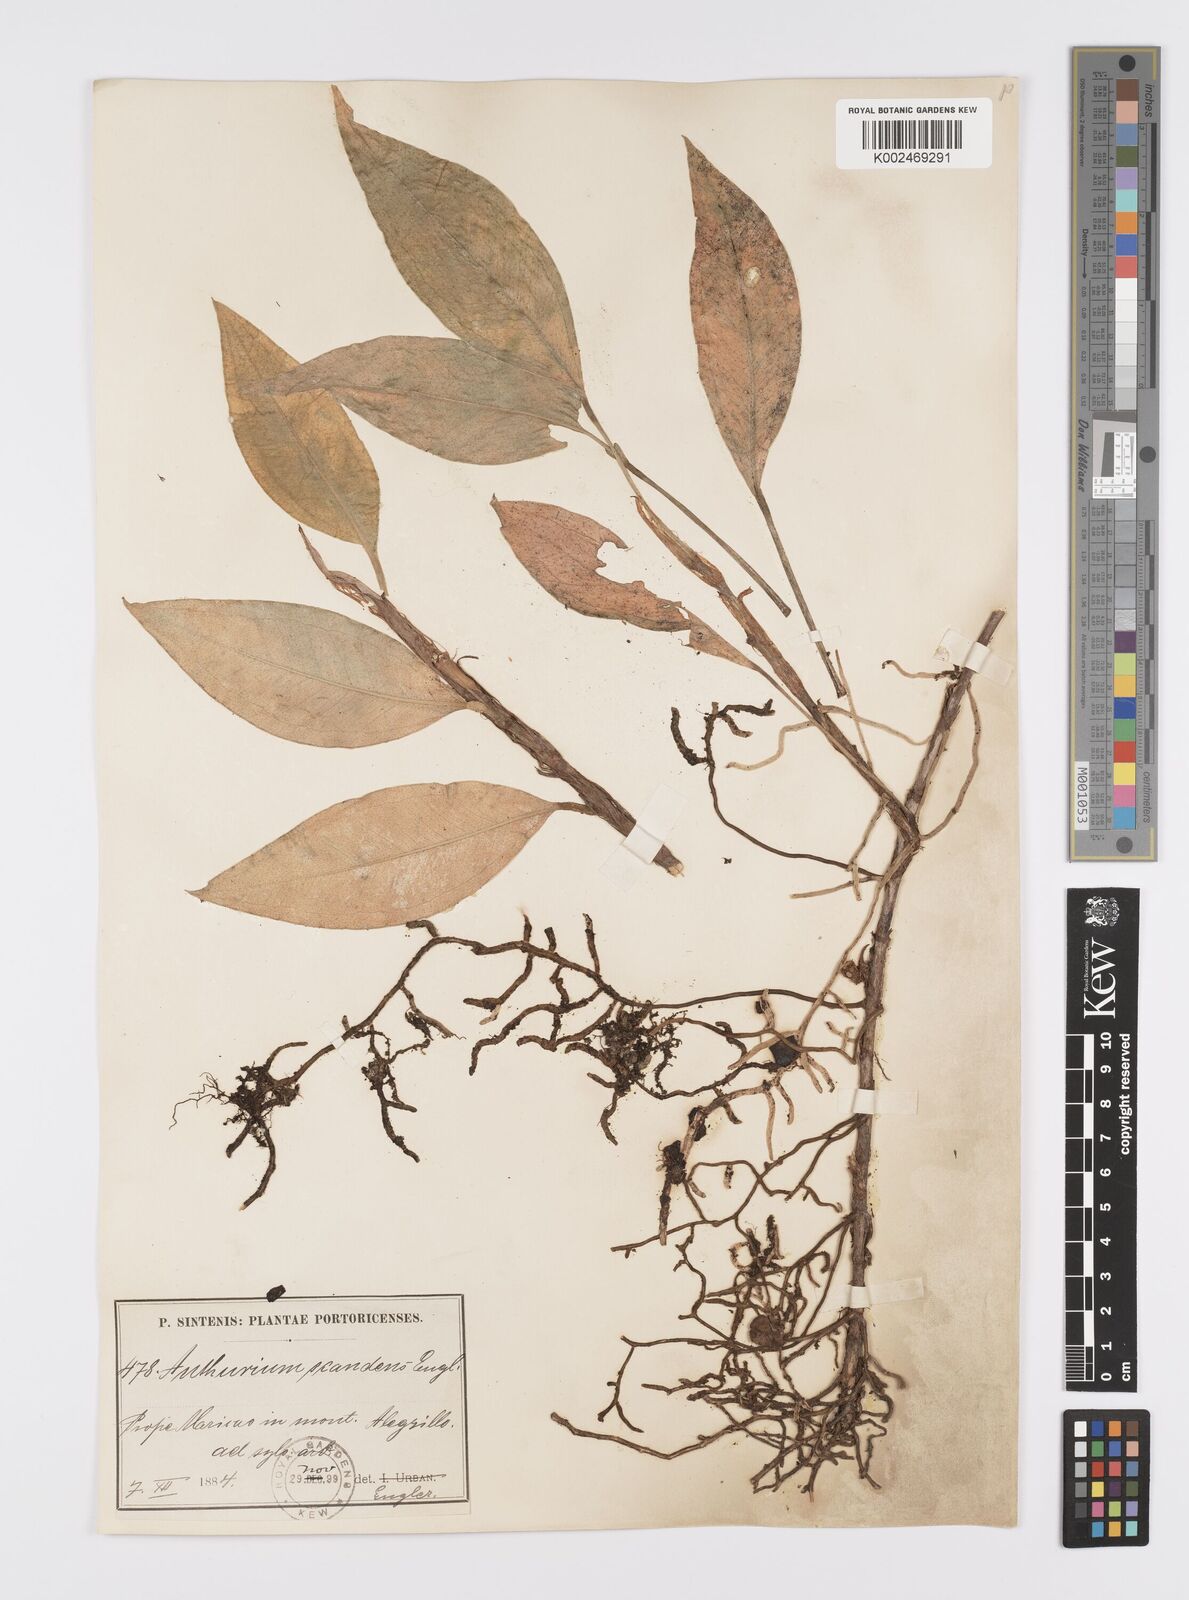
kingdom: Plantae
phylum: Tracheophyta
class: Liliopsida
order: Alismatales
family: Araceae
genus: Anthurium
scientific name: Anthurium scandens
